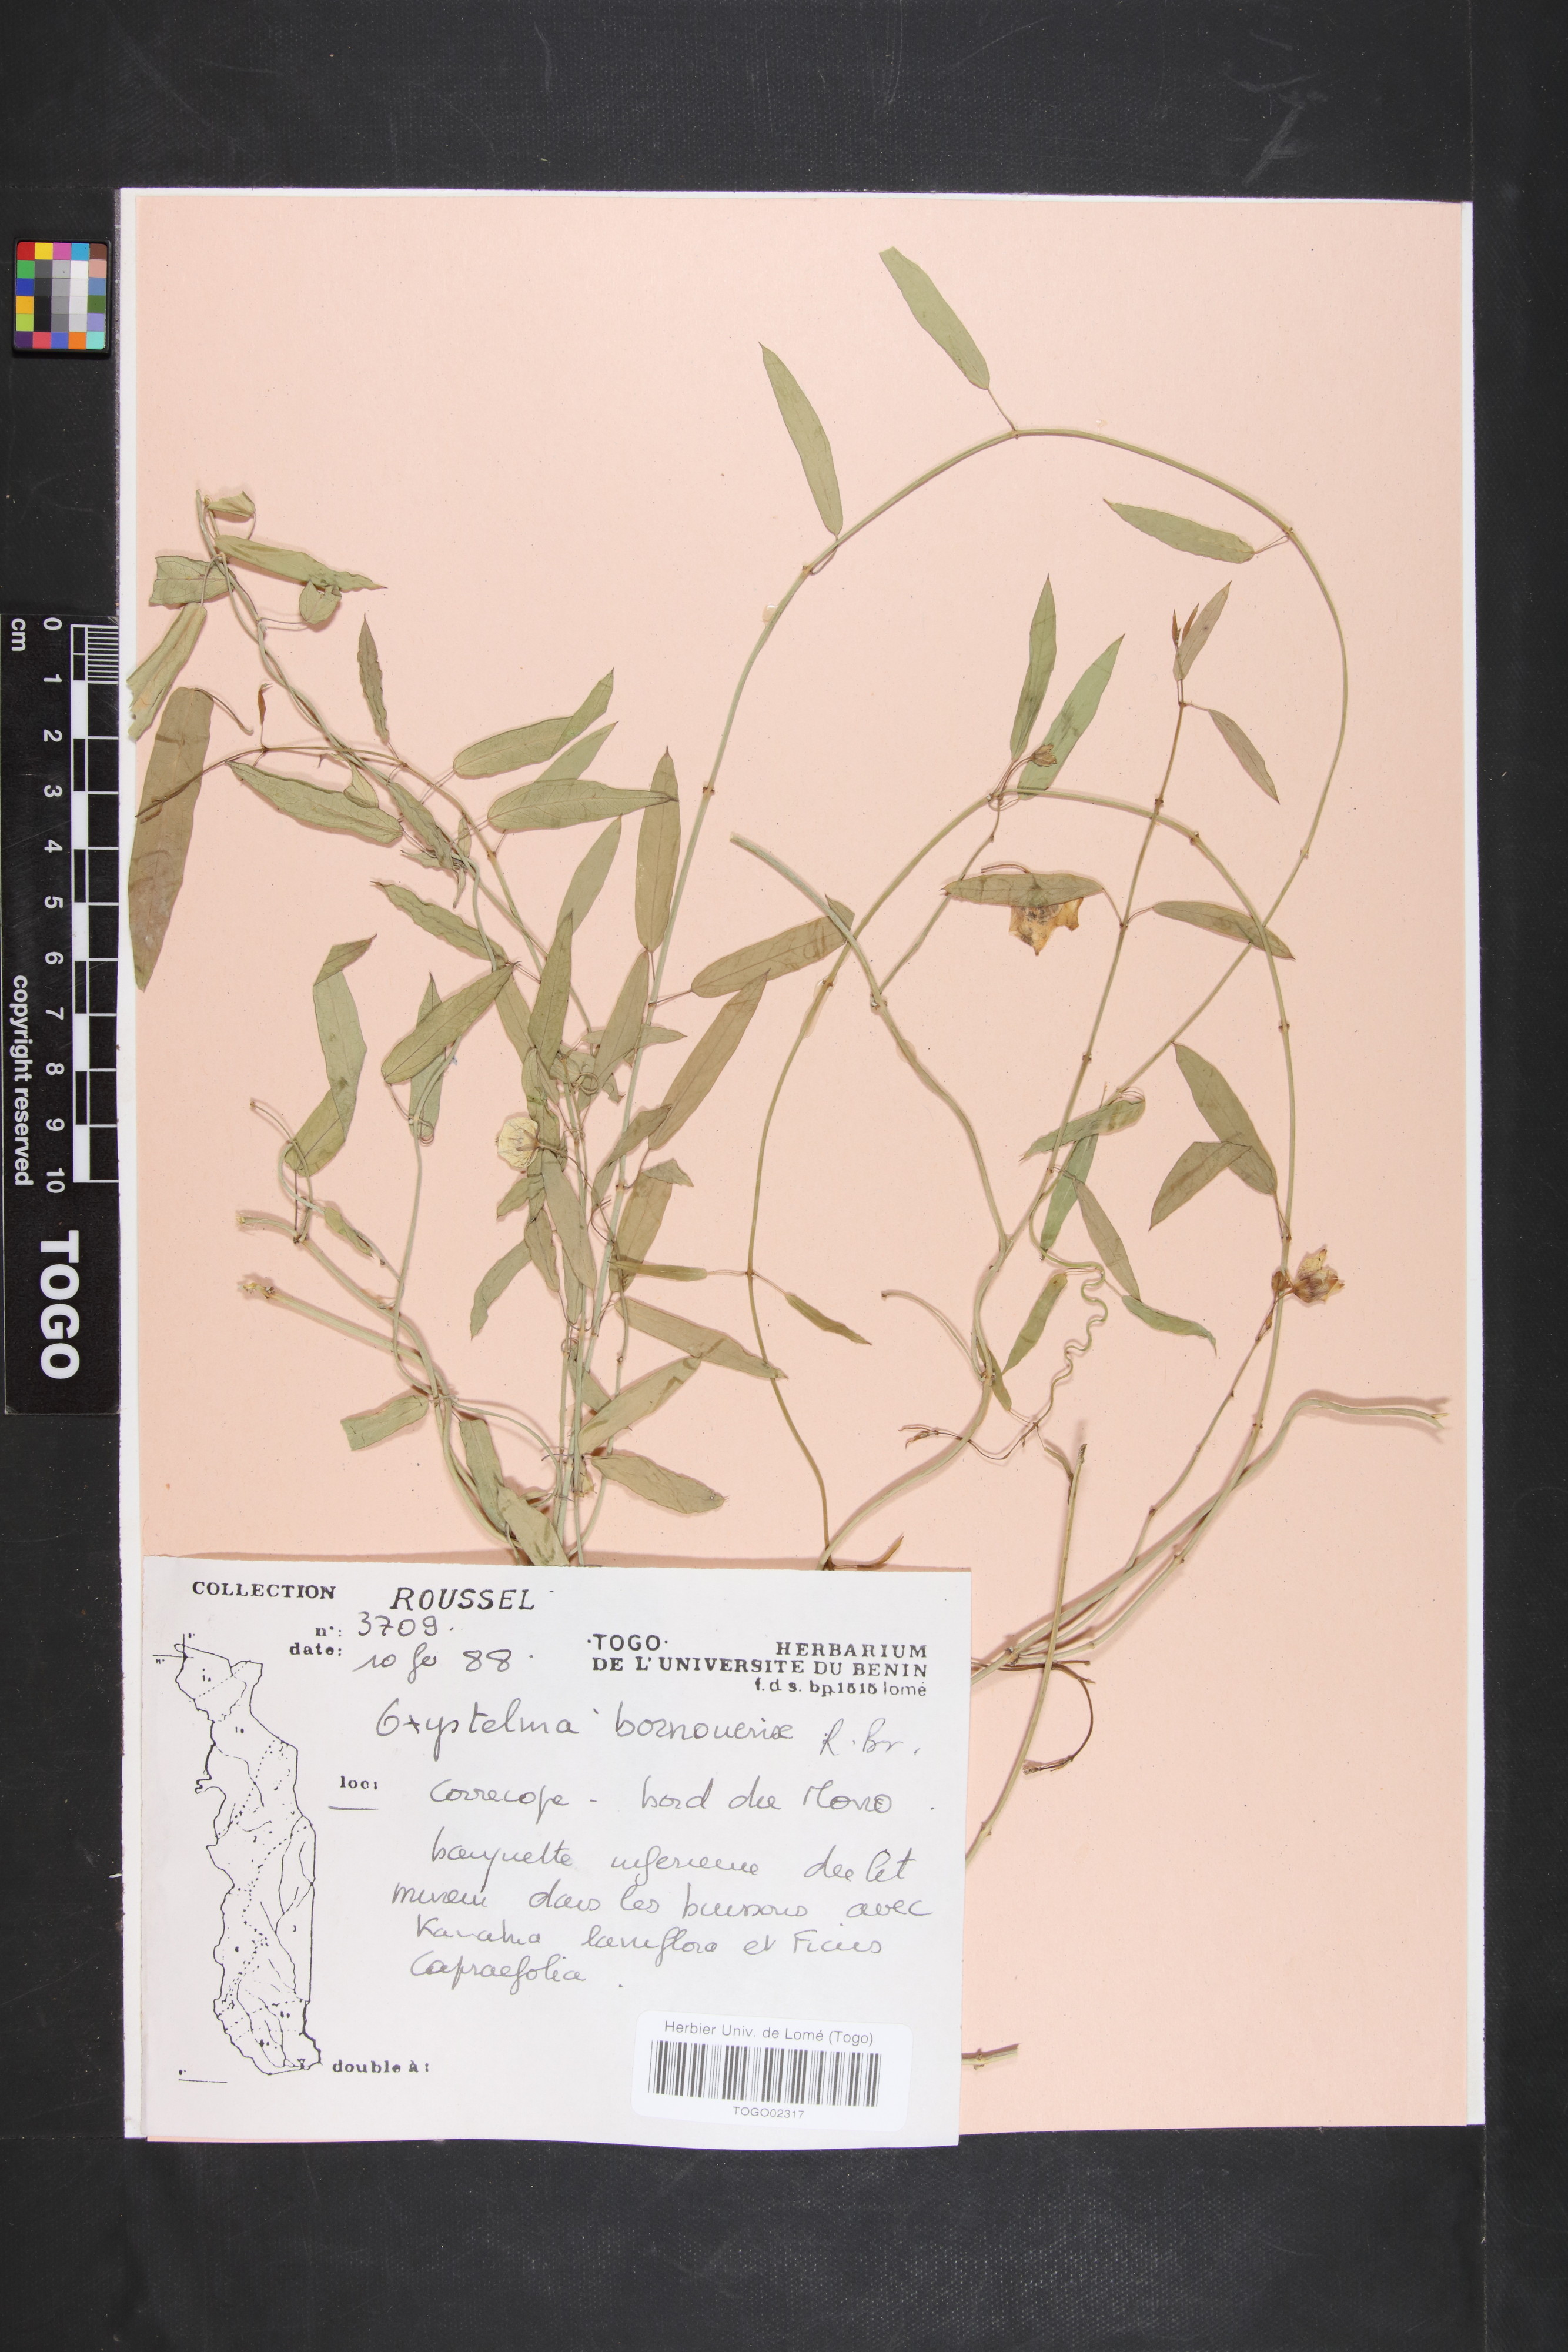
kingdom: Plantae
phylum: Tracheophyta
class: Magnoliopsida
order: Gentianales
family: Apocynaceae
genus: Oxystelma
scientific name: Oxystelma bornouense
